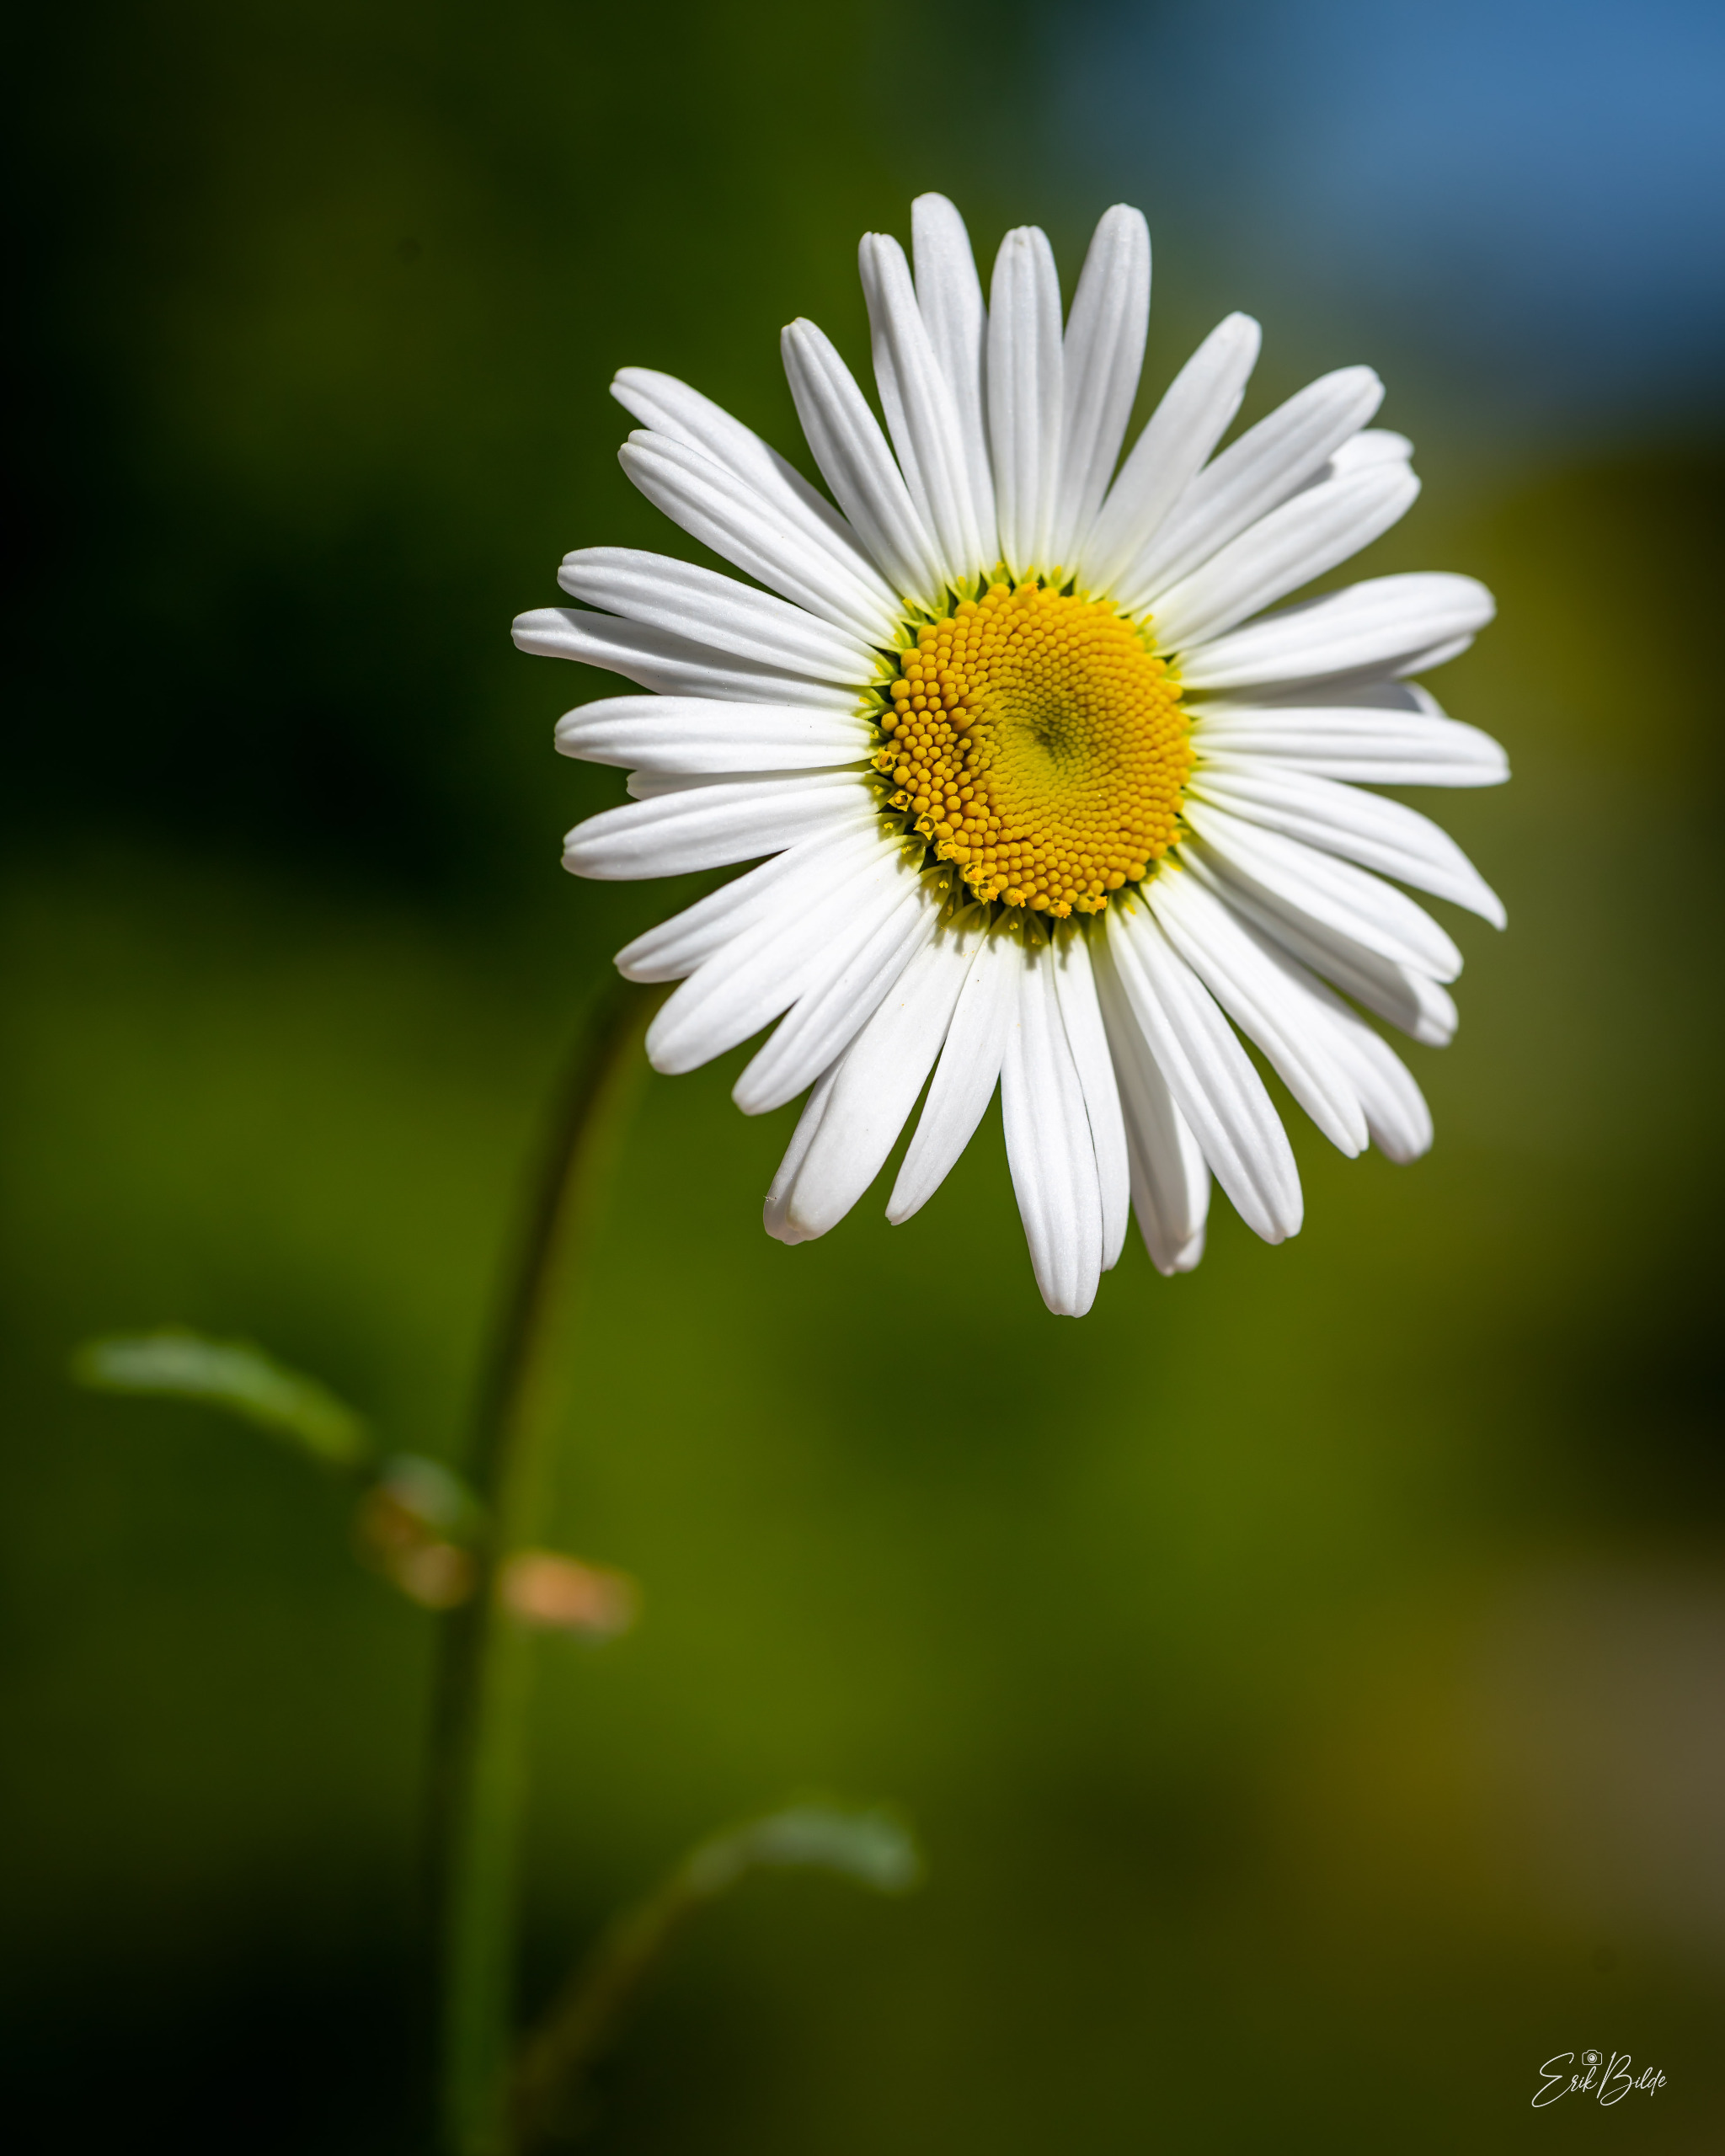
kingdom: Plantae
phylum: Tracheophyta
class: Magnoliopsida
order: Asterales
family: Asteraceae
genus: Leucanthemum
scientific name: Leucanthemum vulgare
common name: Hvid okseøje
